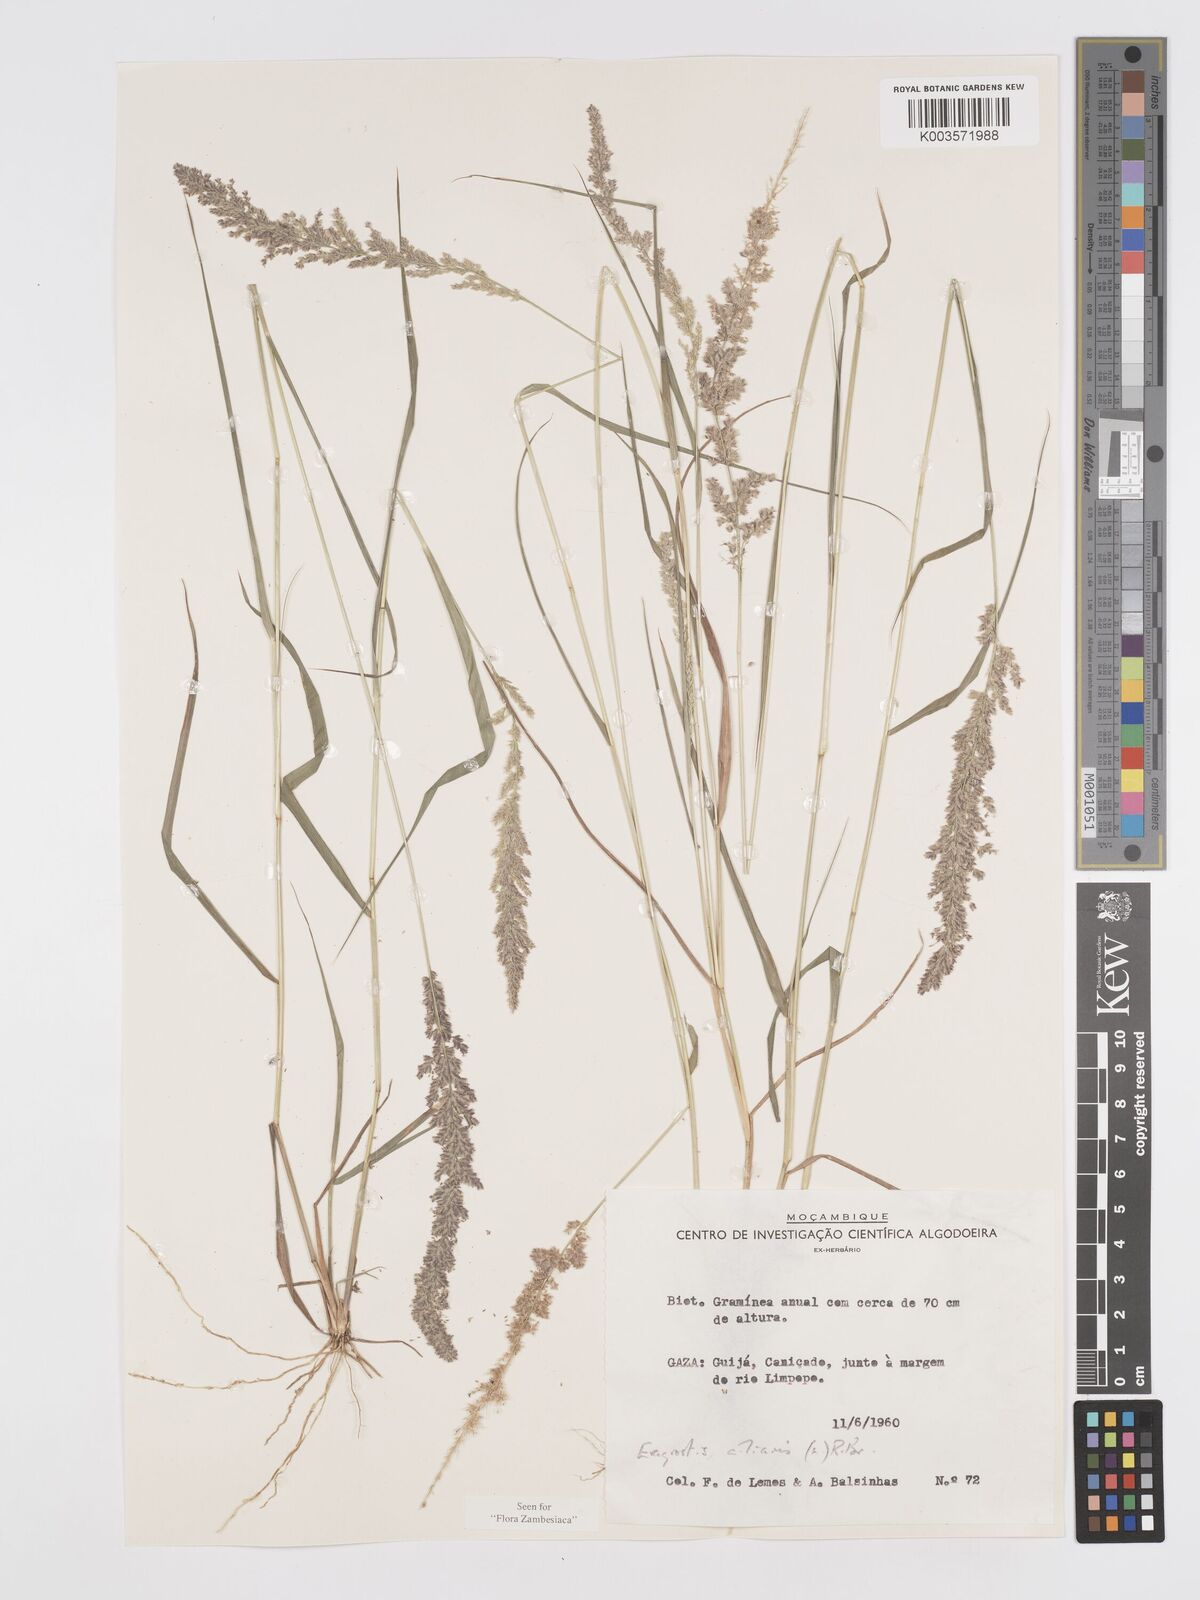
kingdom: Plantae
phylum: Tracheophyta
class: Liliopsida
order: Poales
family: Poaceae
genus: Eragrostis
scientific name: Eragrostis ciliaris
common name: Gophertail lovegrass
